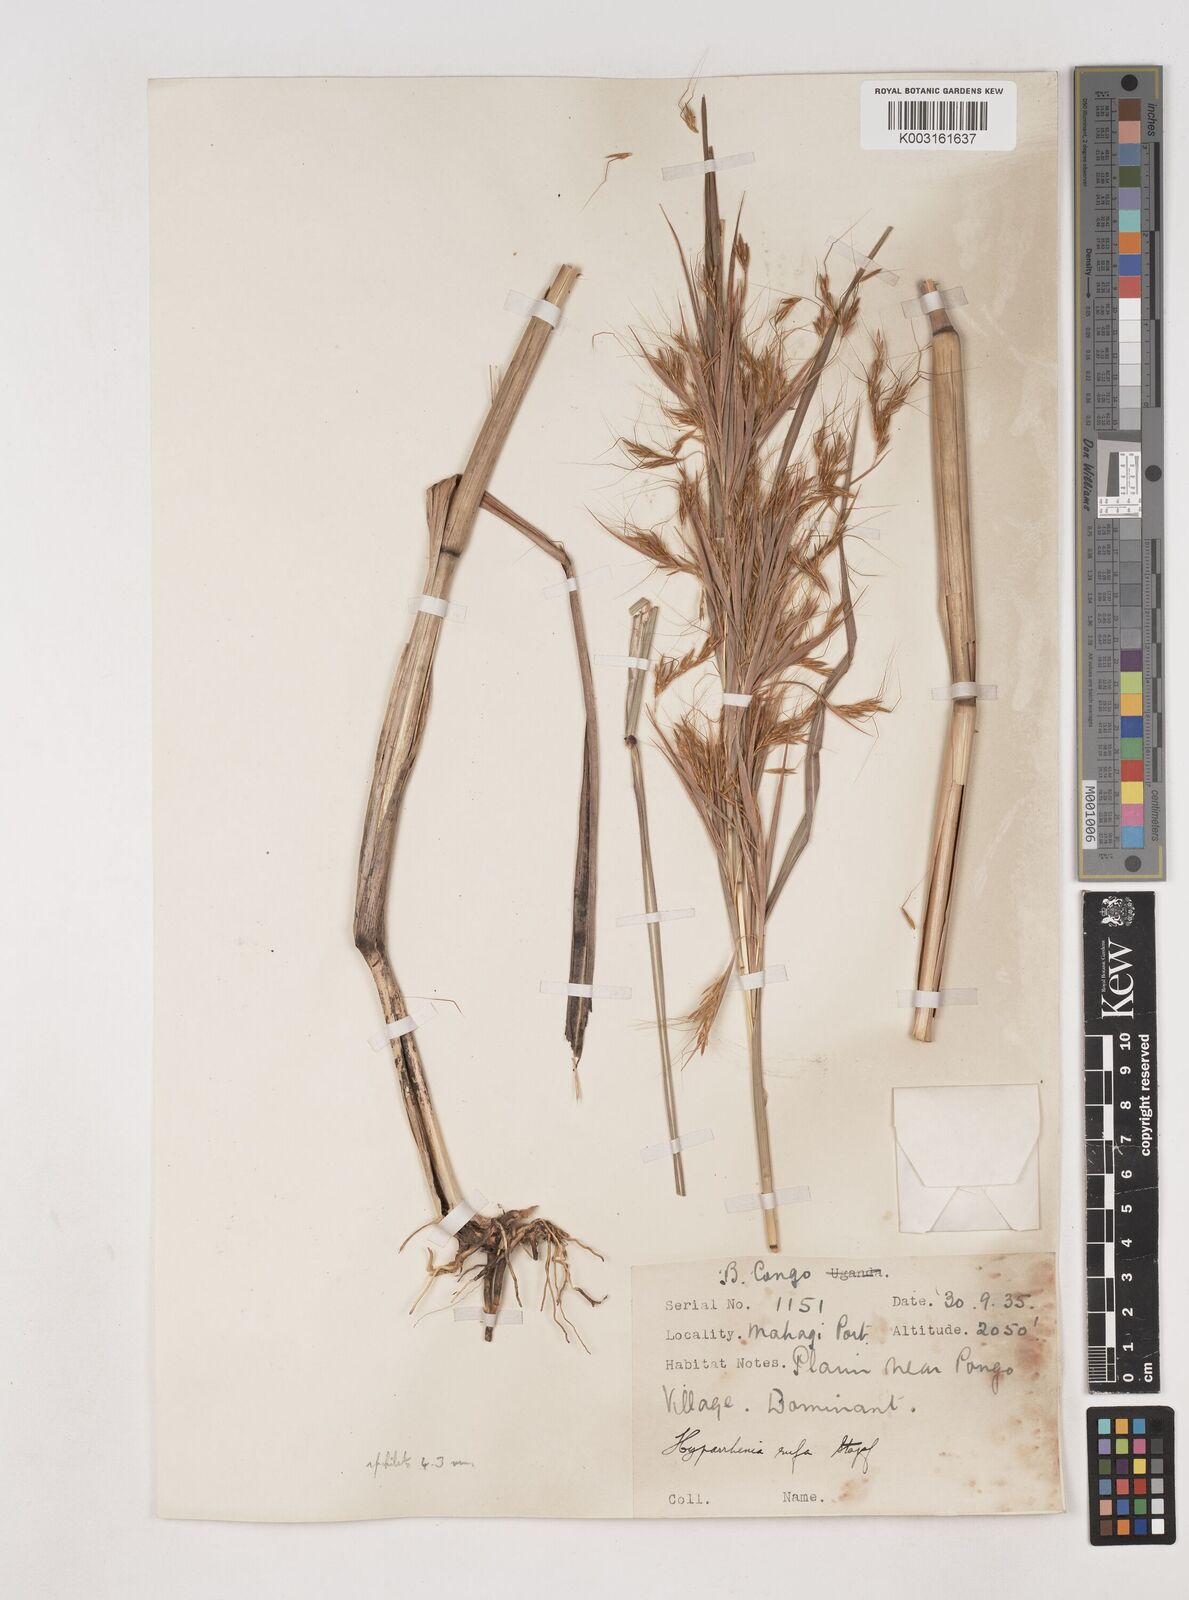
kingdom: Plantae
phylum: Tracheophyta
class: Liliopsida
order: Poales
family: Poaceae
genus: Hyparrhenia
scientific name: Hyparrhenia rufa
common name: Jaraguagrass
